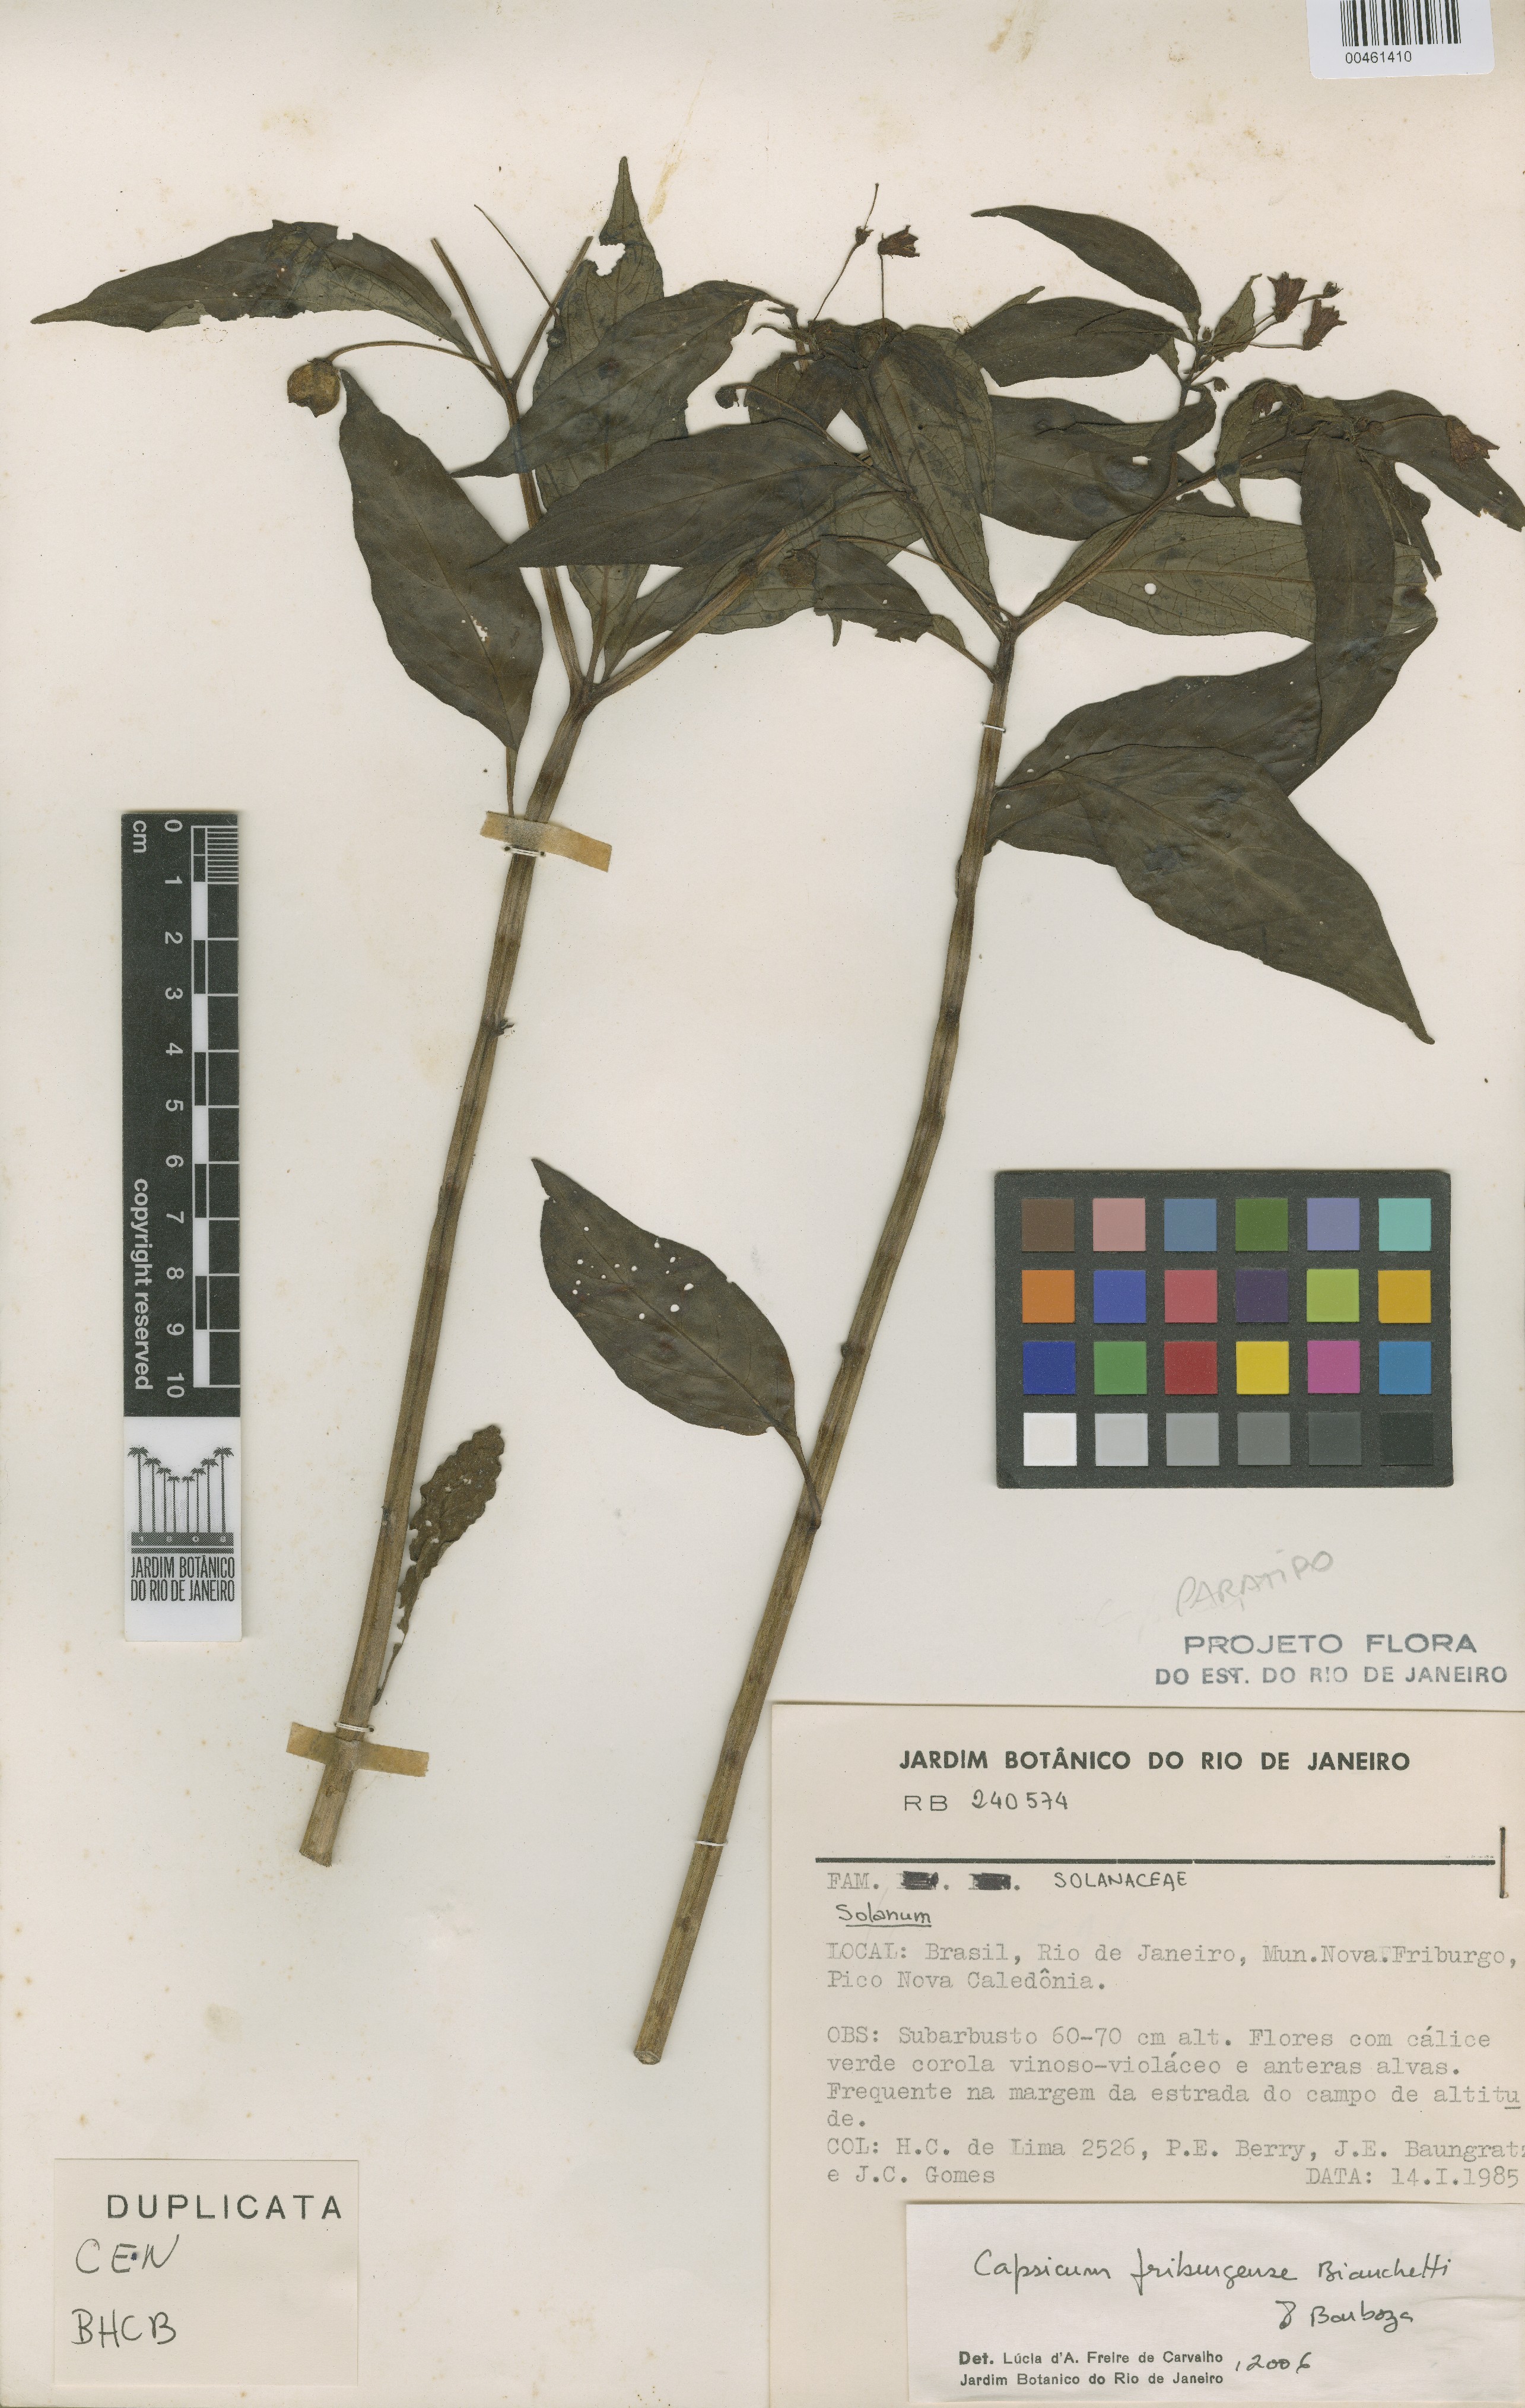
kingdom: Plantae
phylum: Tracheophyta
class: Magnoliopsida
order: Solanales
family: Solanaceae
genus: Capsicum
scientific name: Capsicum friburgense
